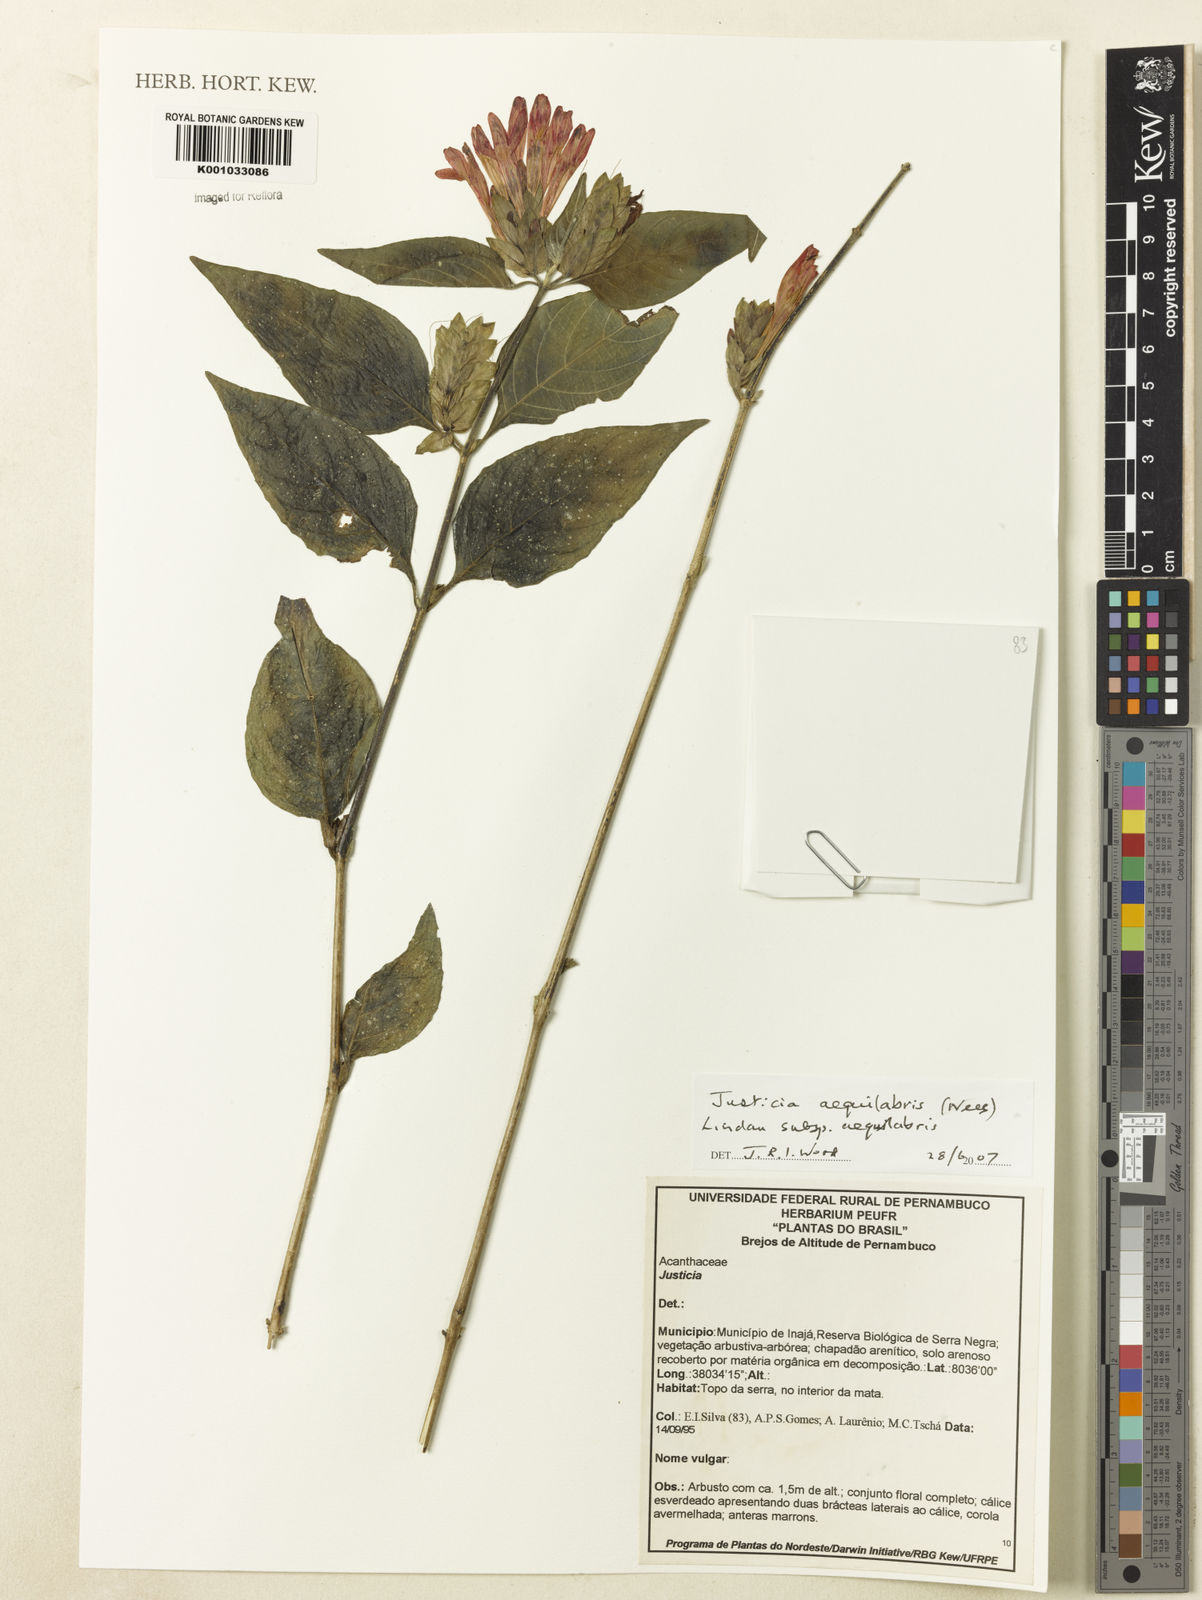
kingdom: Plantae
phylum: Tracheophyta
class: Magnoliopsida
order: Lamiales
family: Acanthaceae
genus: Justicia
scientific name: Justicia aequalis
